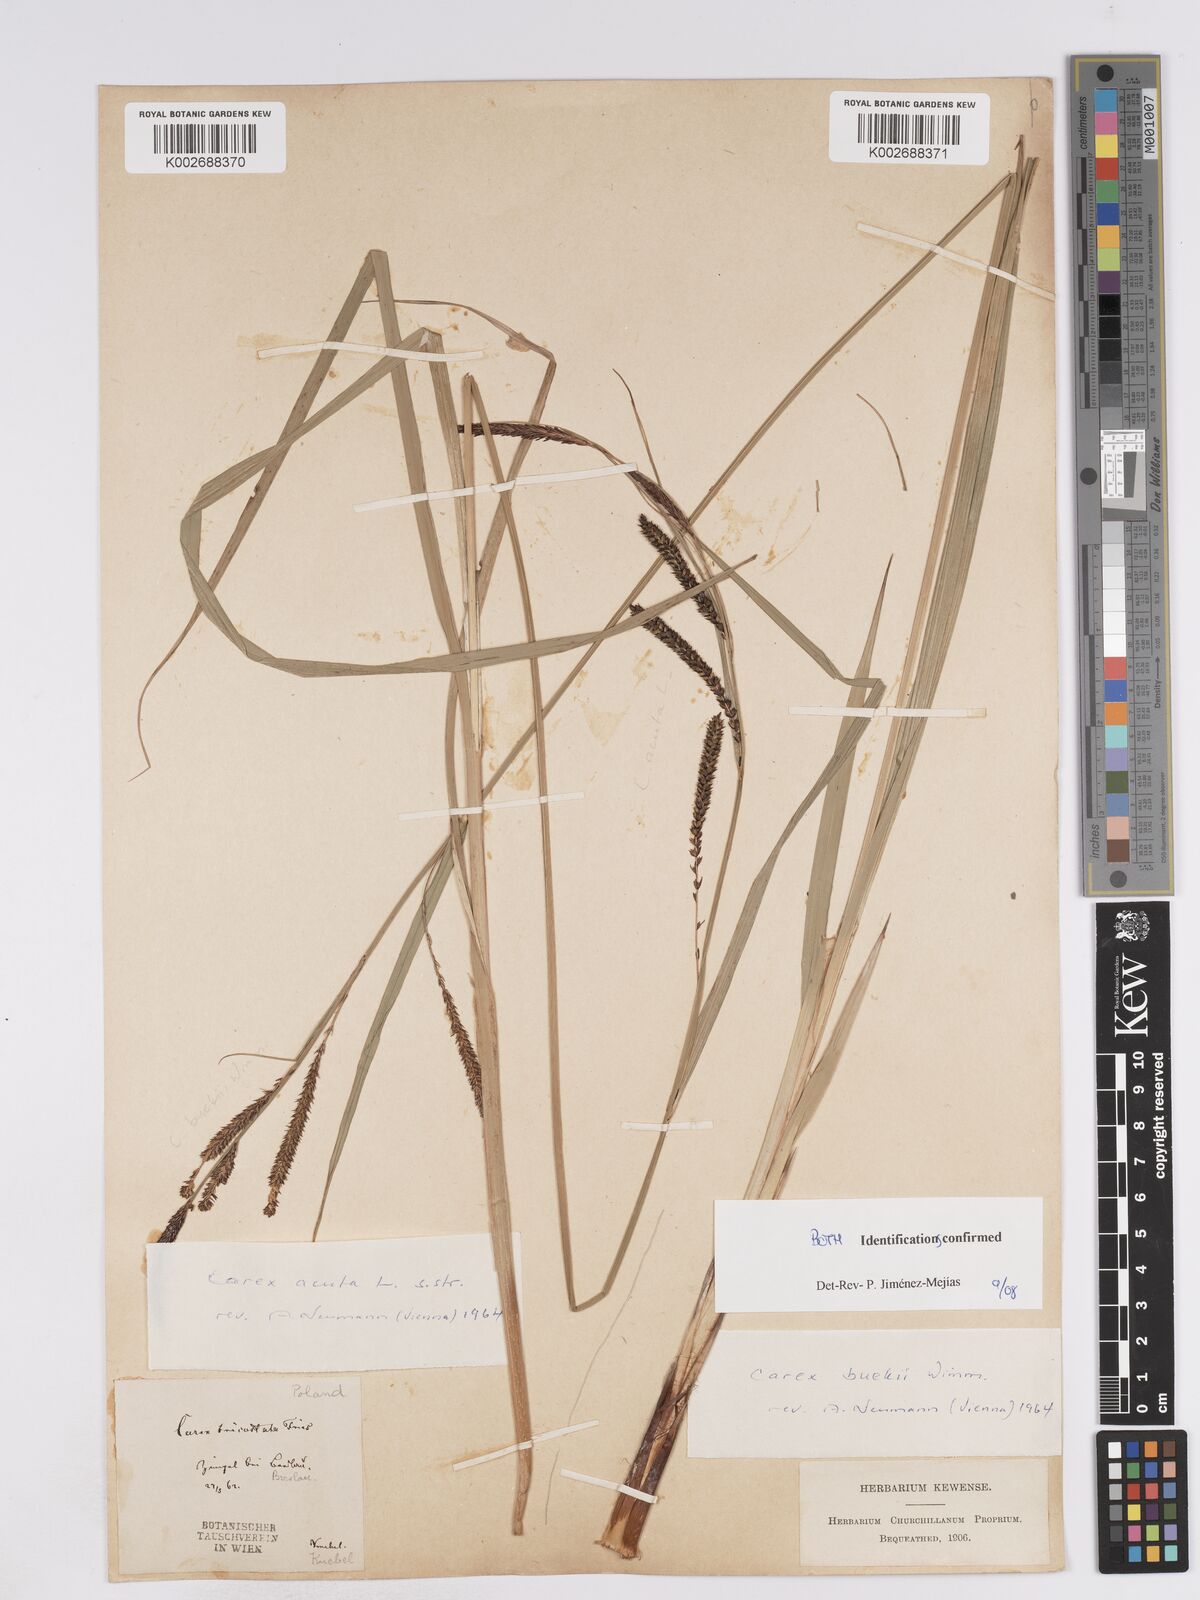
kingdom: Plantae
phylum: Tracheophyta
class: Liliopsida
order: Poales
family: Cyperaceae
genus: Carex
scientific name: Carex buekii
